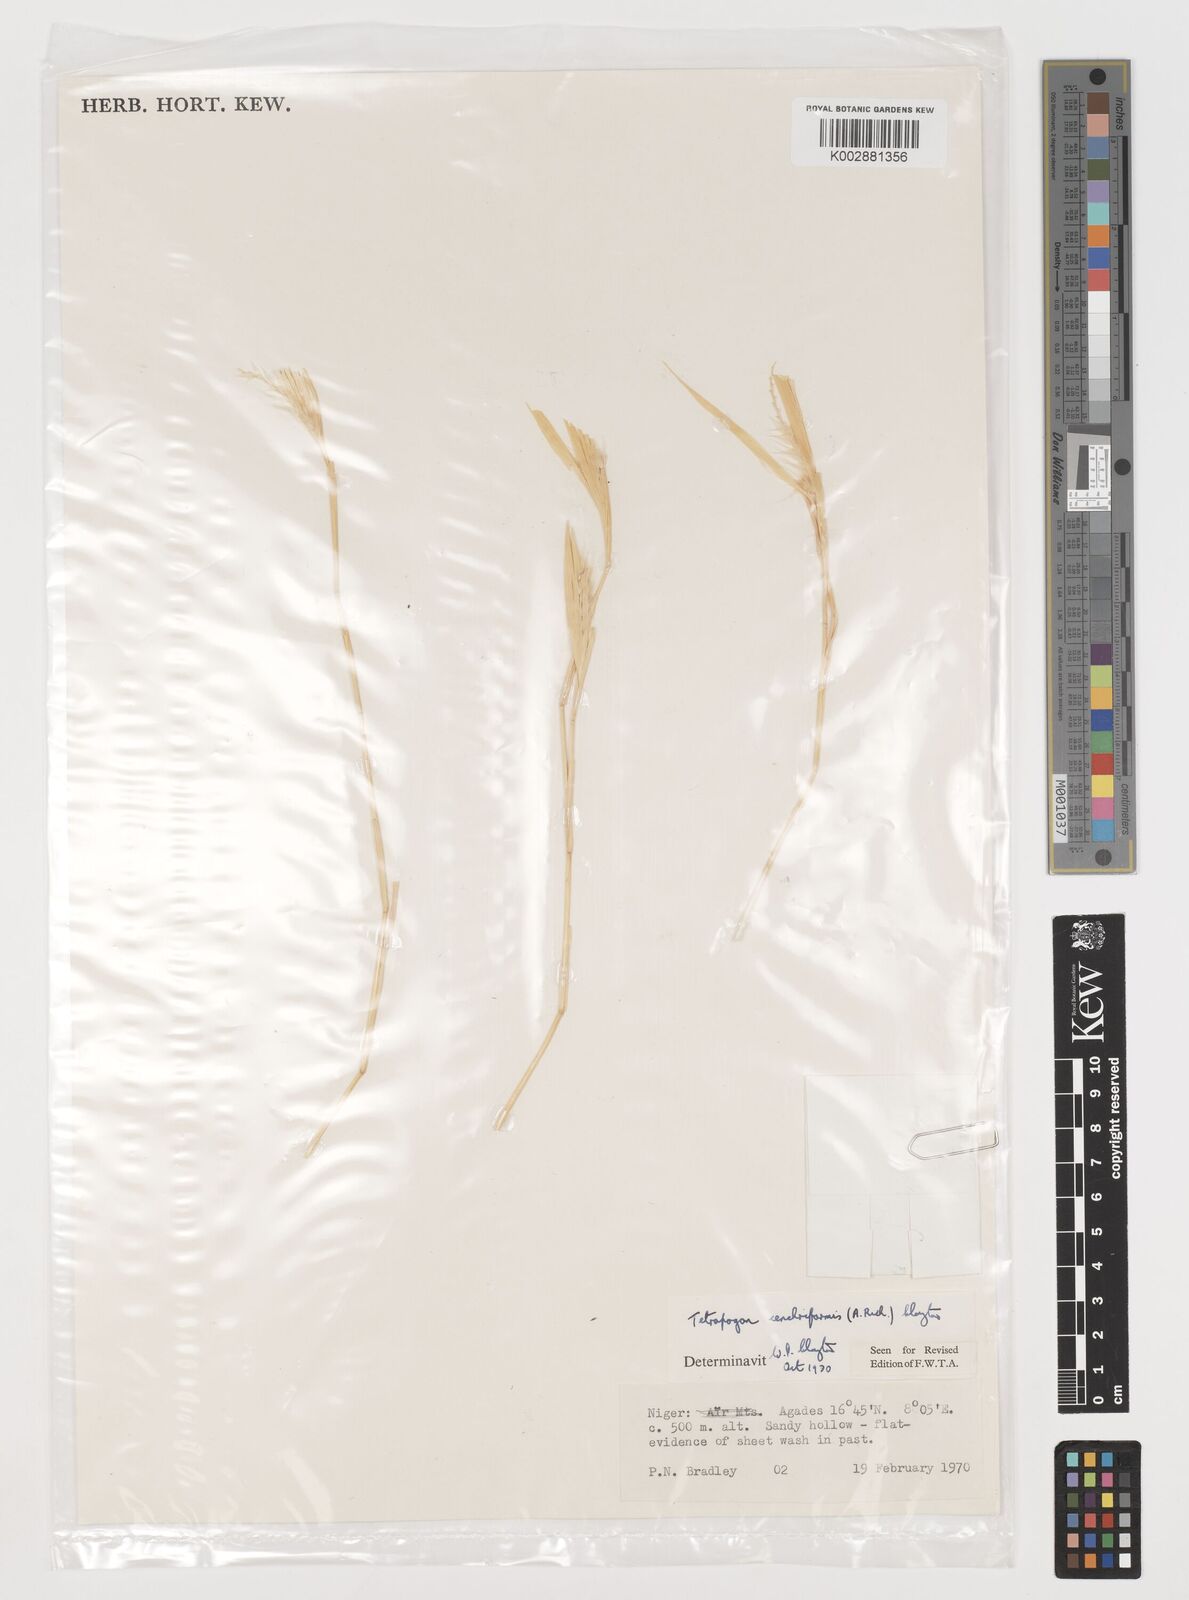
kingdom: Plantae
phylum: Tracheophyta
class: Liliopsida
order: Poales
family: Poaceae
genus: Tetrapogon
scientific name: Tetrapogon cenchriformis
